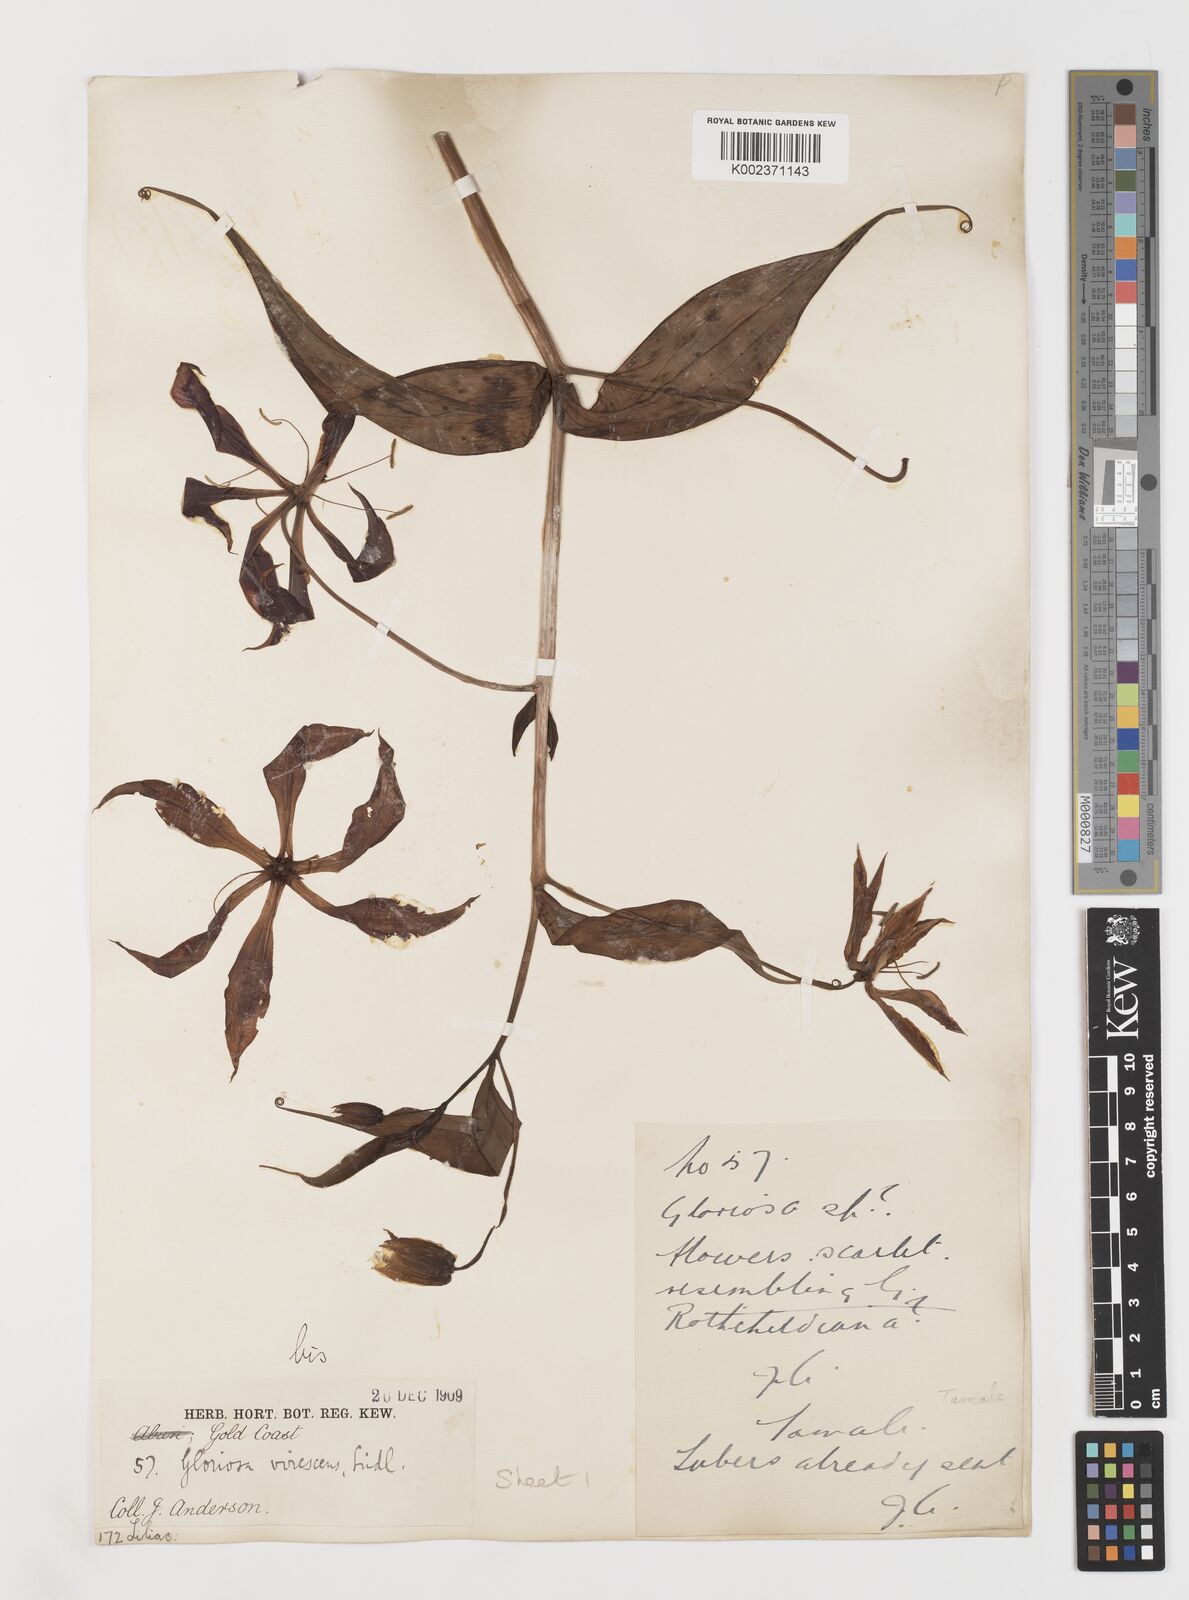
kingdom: Plantae
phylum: Tracheophyta
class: Liliopsida
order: Liliales
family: Colchicaceae
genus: Gloriosa
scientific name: Gloriosa simplex
